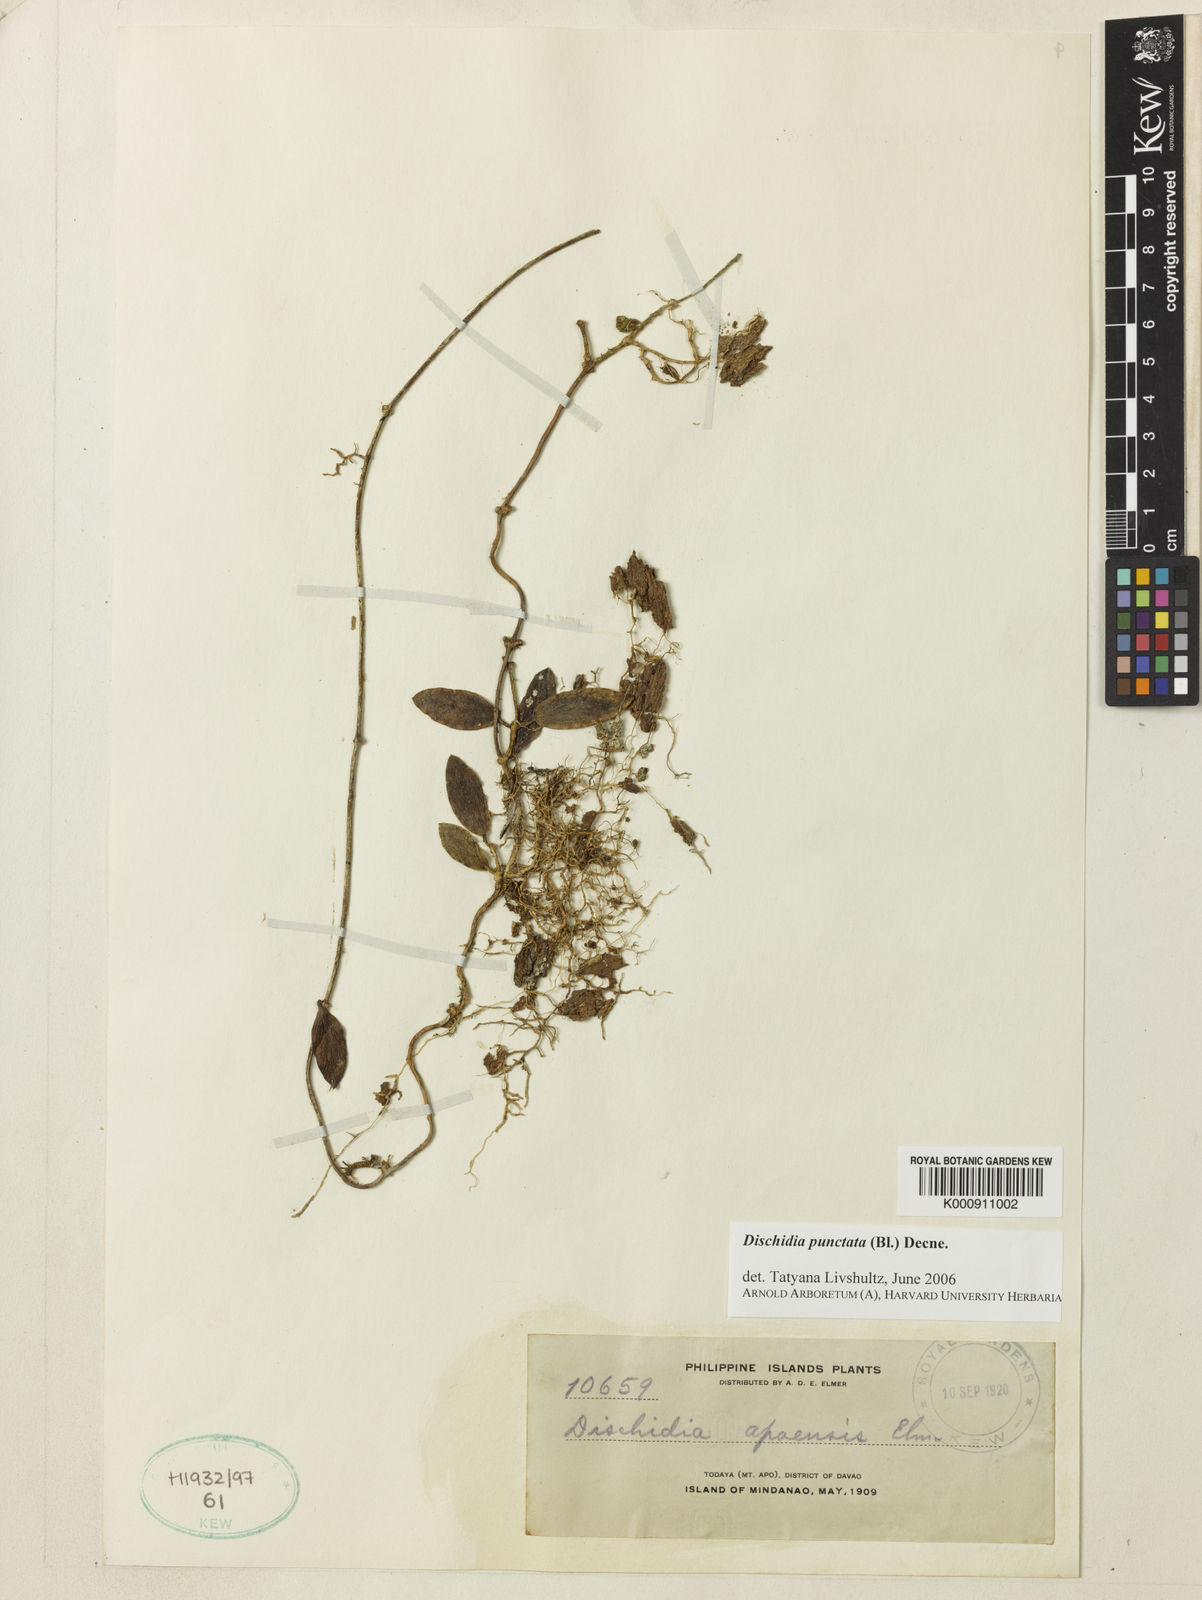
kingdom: Plantae
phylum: Tracheophyta
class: Magnoliopsida
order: Gentianales
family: Apocynaceae
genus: Dischidia
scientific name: Dischidia punctata
